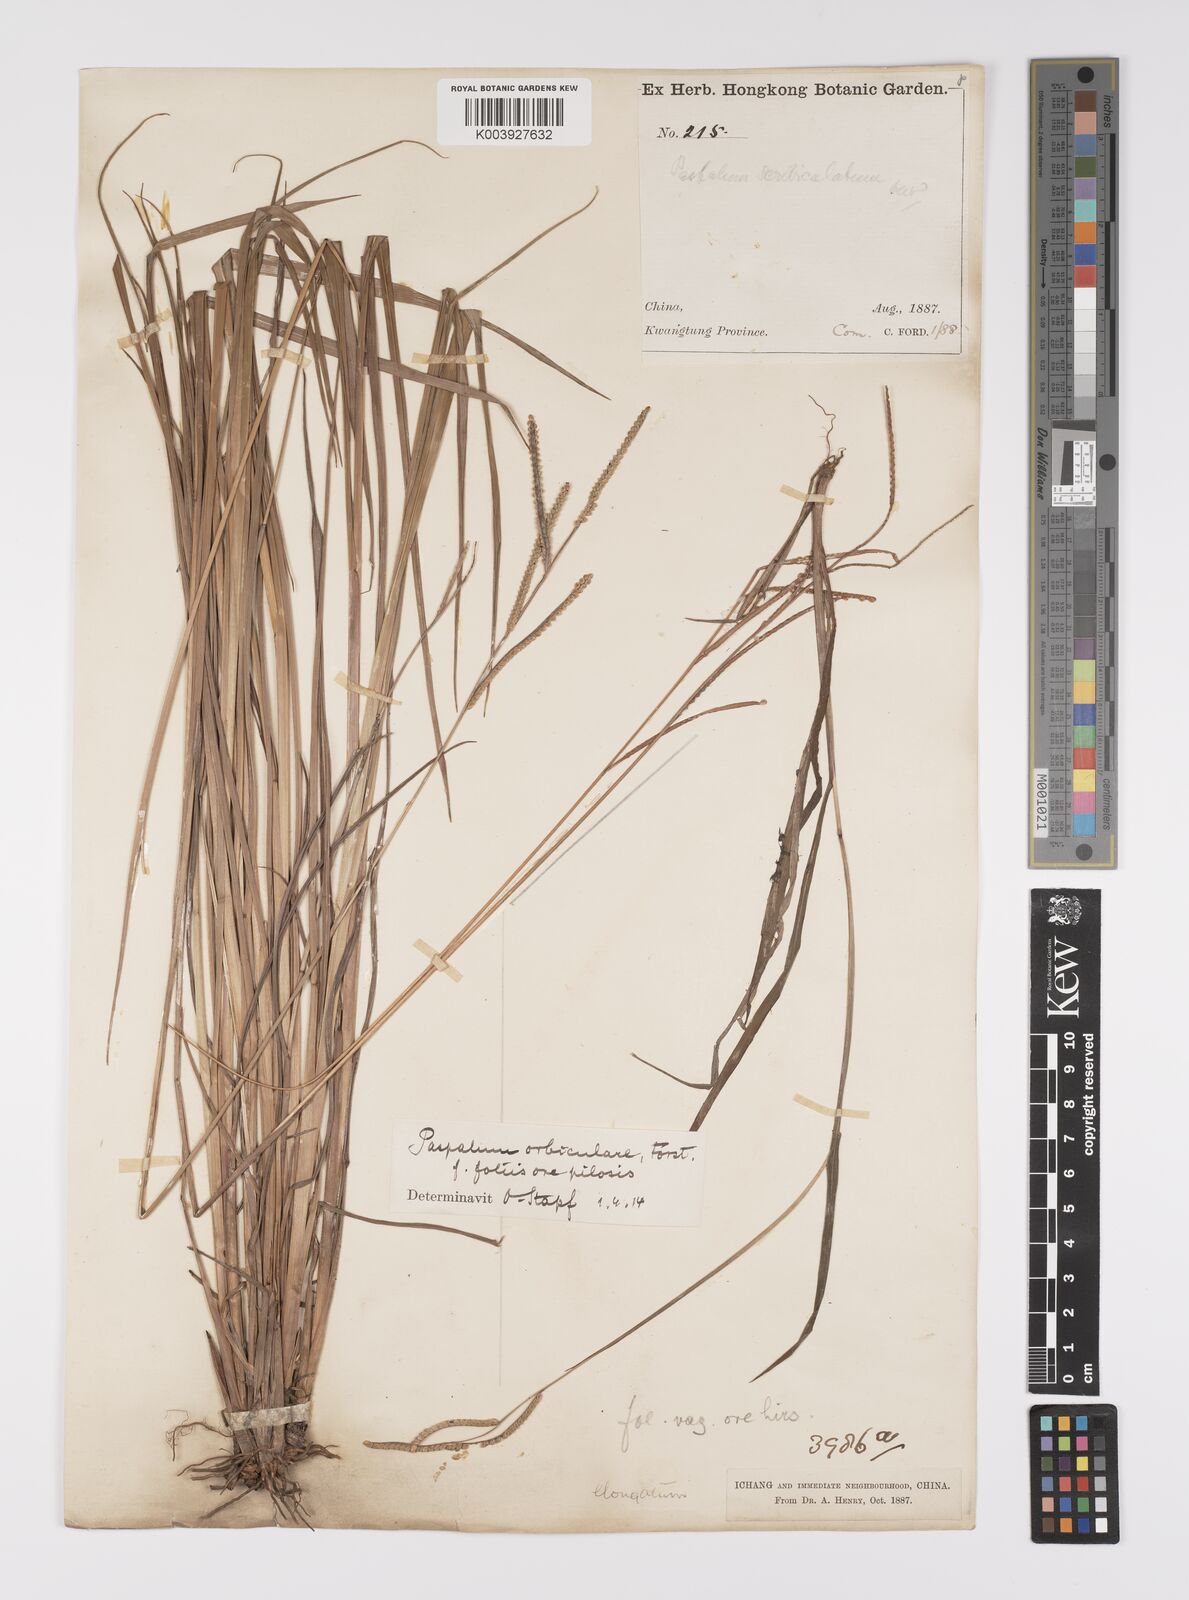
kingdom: Plantae
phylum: Tracheophyta
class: Liliopsida
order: Poales
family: Poaceae
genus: Paspalum
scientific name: Paspalum orbiculare
